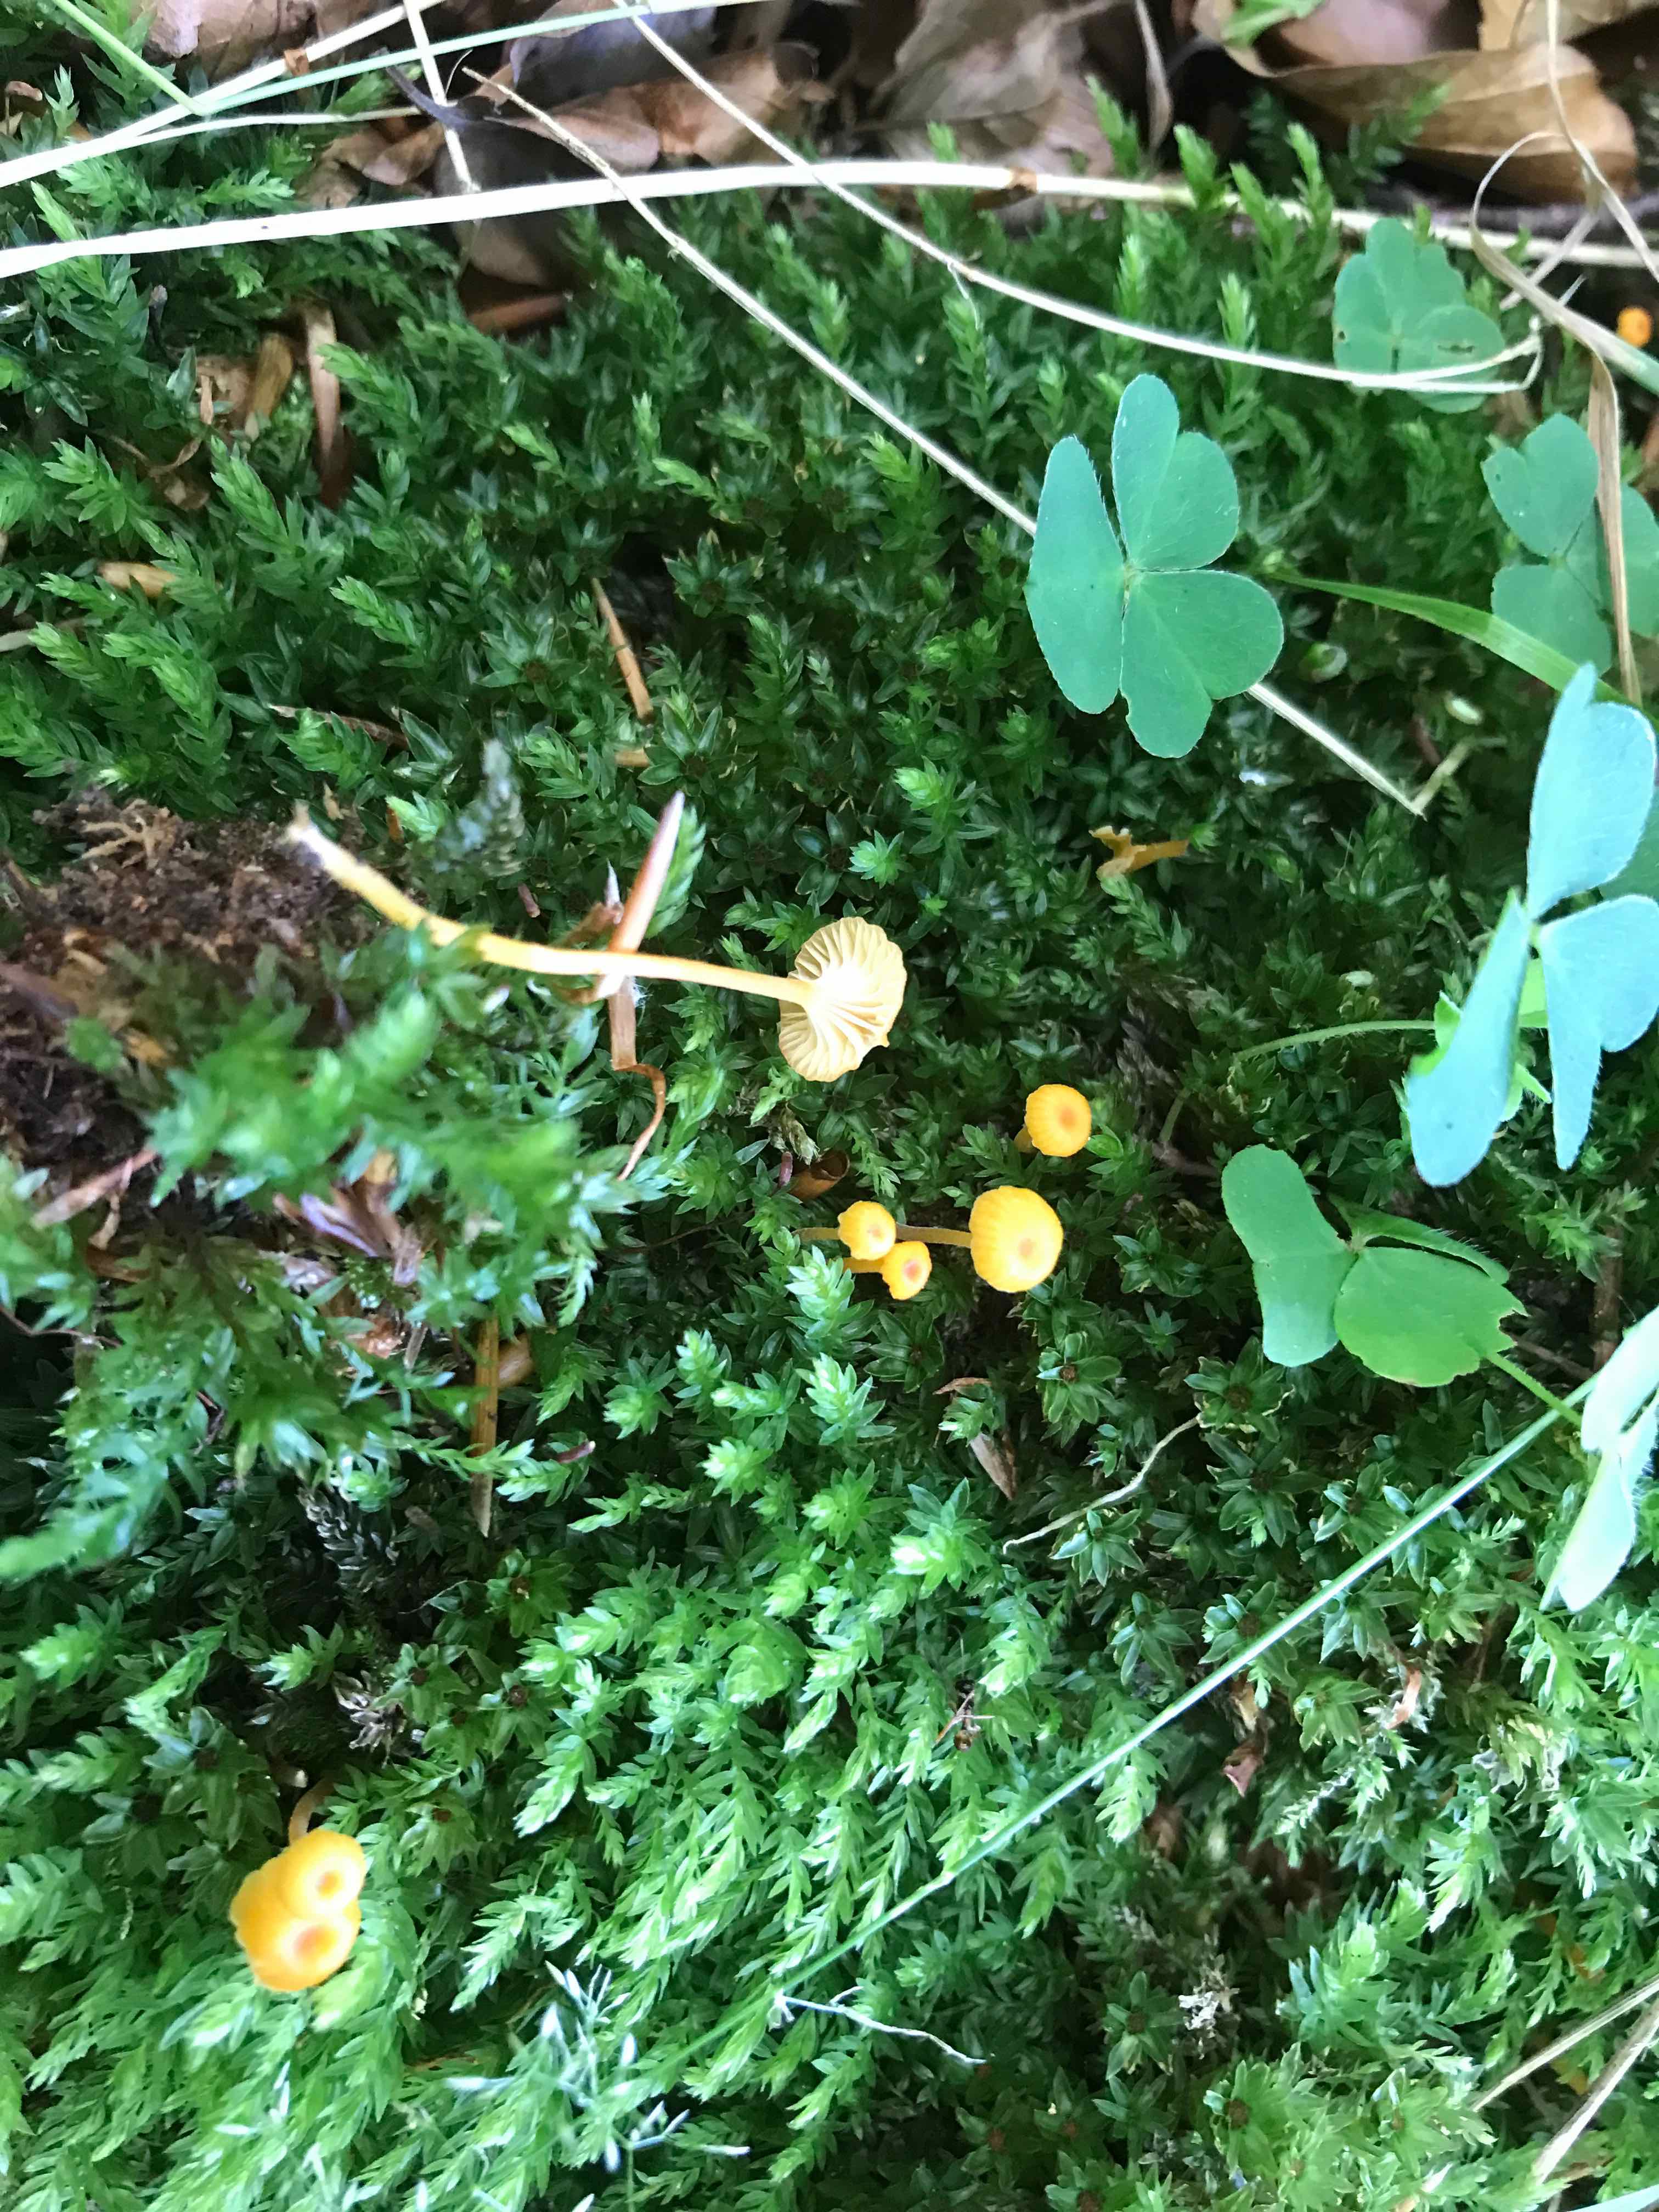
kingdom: Fungi
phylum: Basidiomycota
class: Agaricomycetes
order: Hymenochaetales
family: Rickenellaceae
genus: Rickenella
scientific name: Rickenella fibula
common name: orange mosnavlehat
